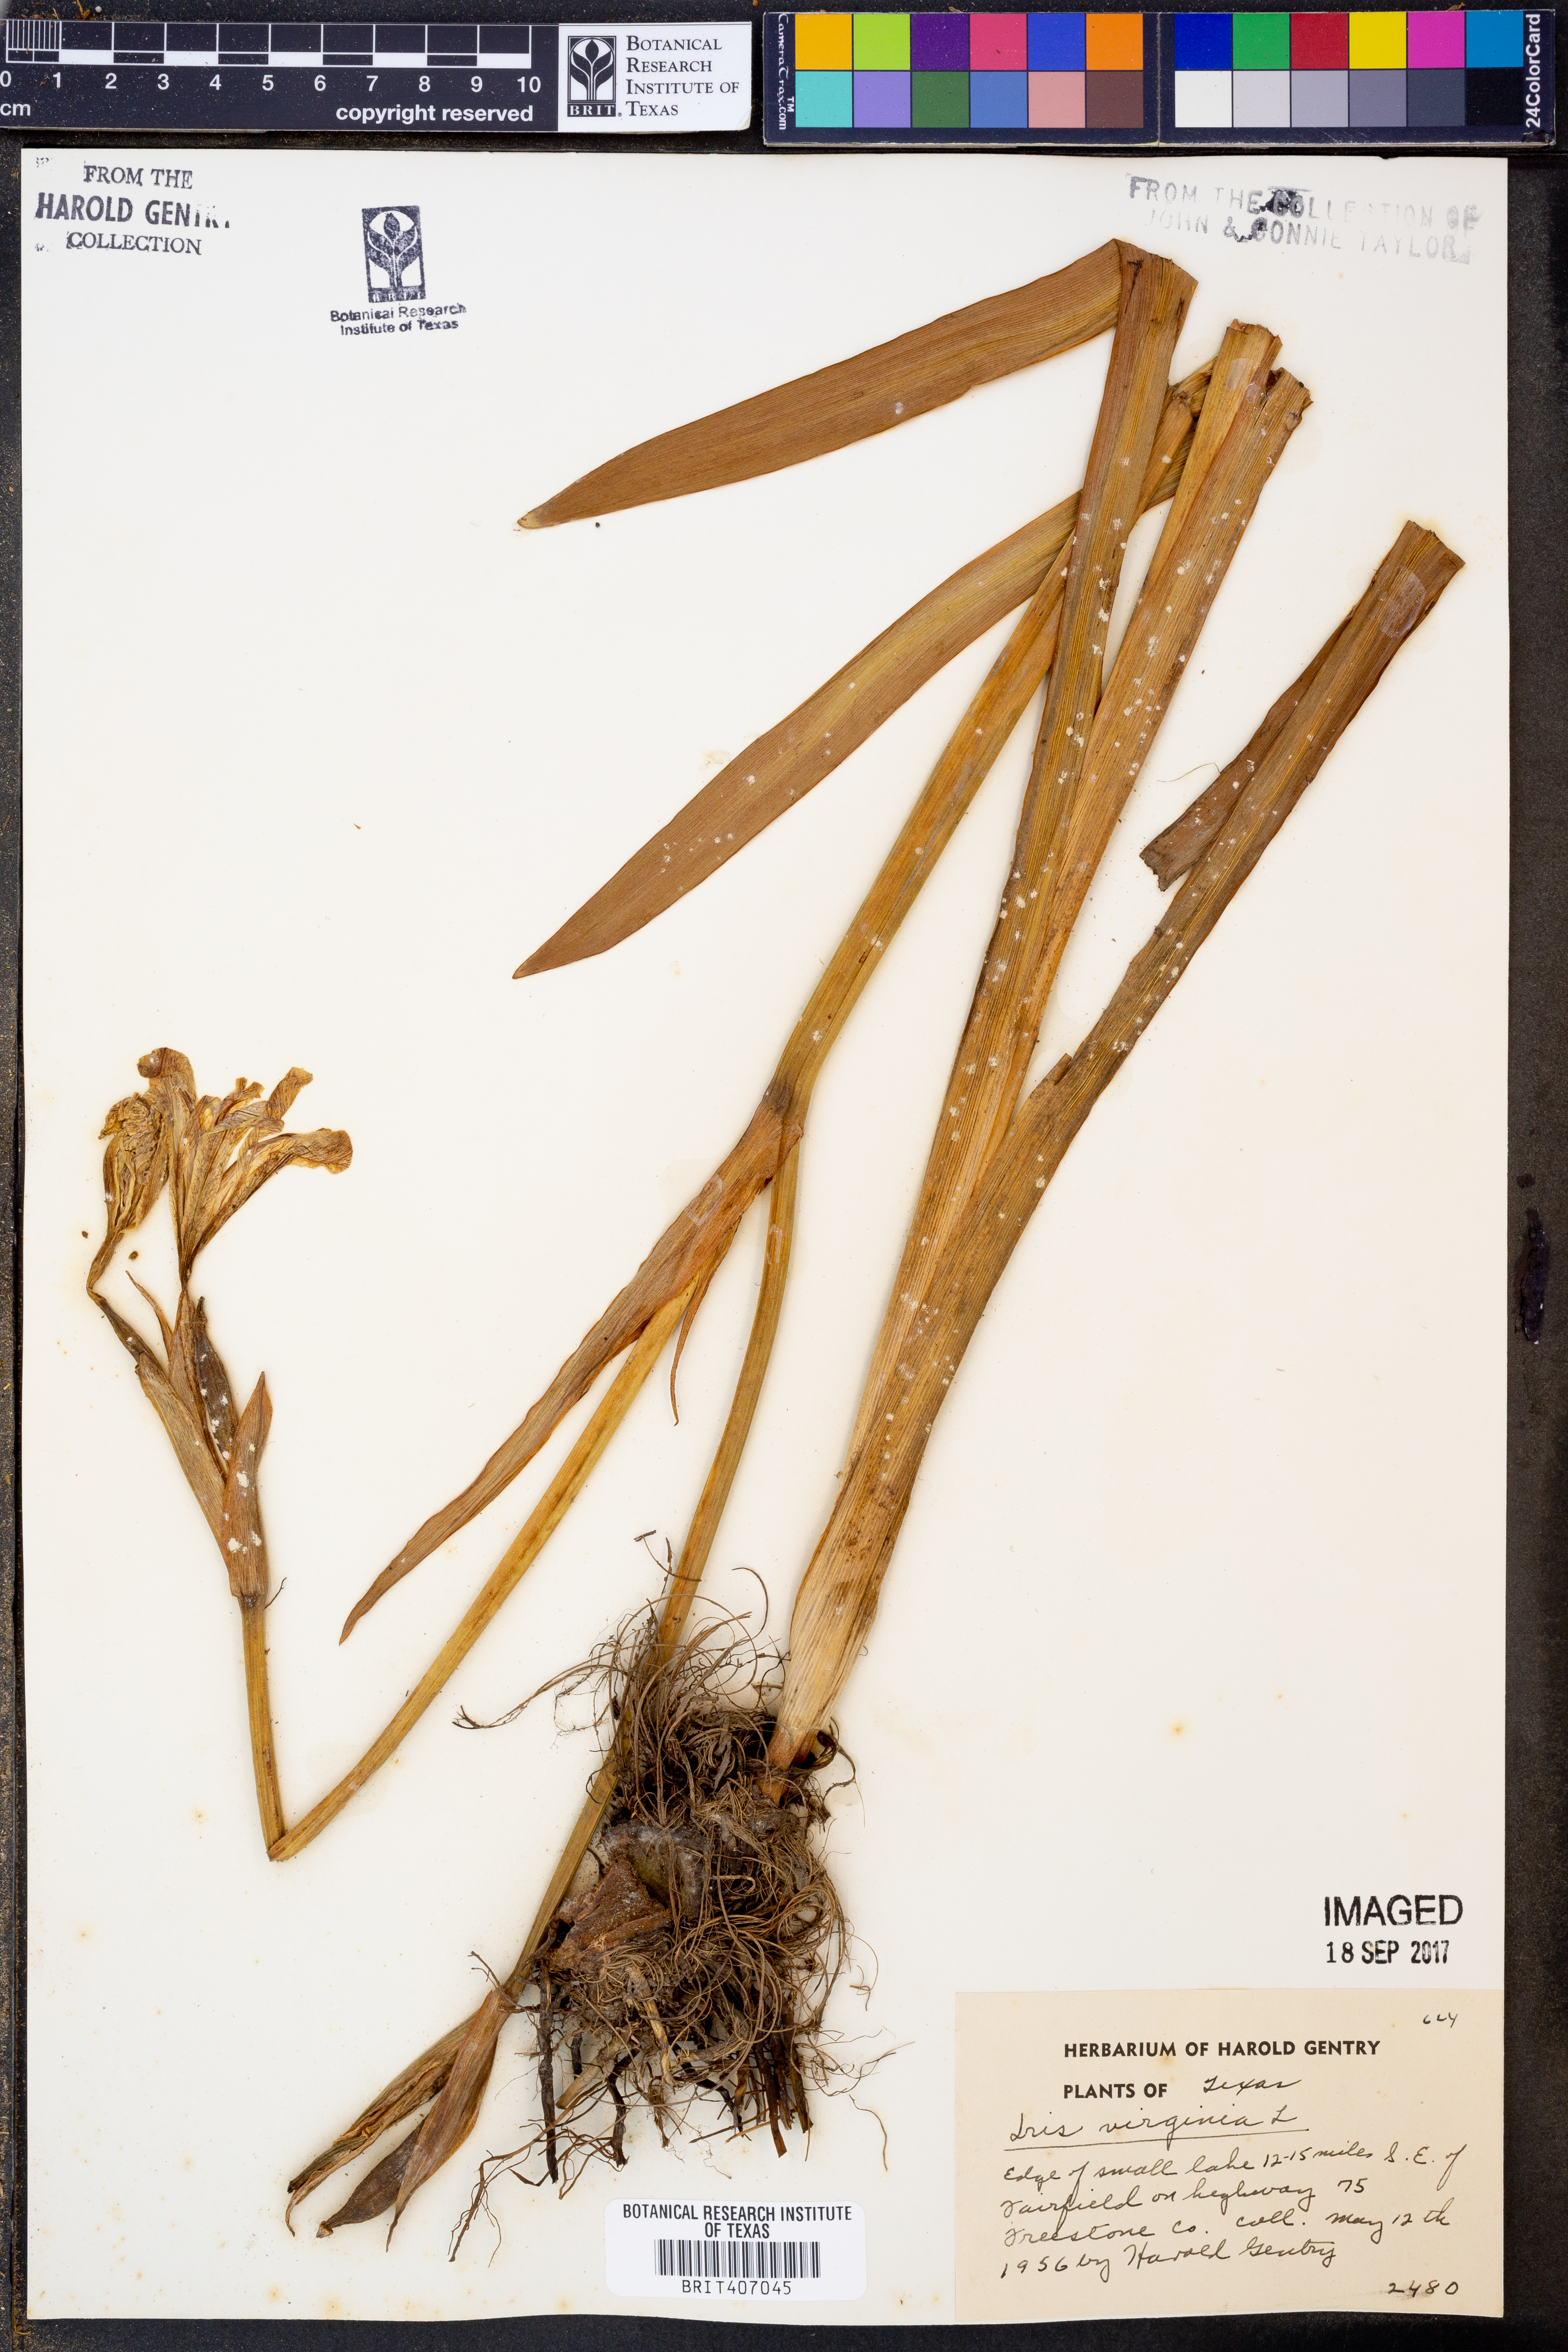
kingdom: Plantae
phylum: Tracheophyta
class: Liliopsida
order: Asparagales
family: Iridaceae
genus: Iris
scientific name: Iris virginica
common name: Southern blue flag
